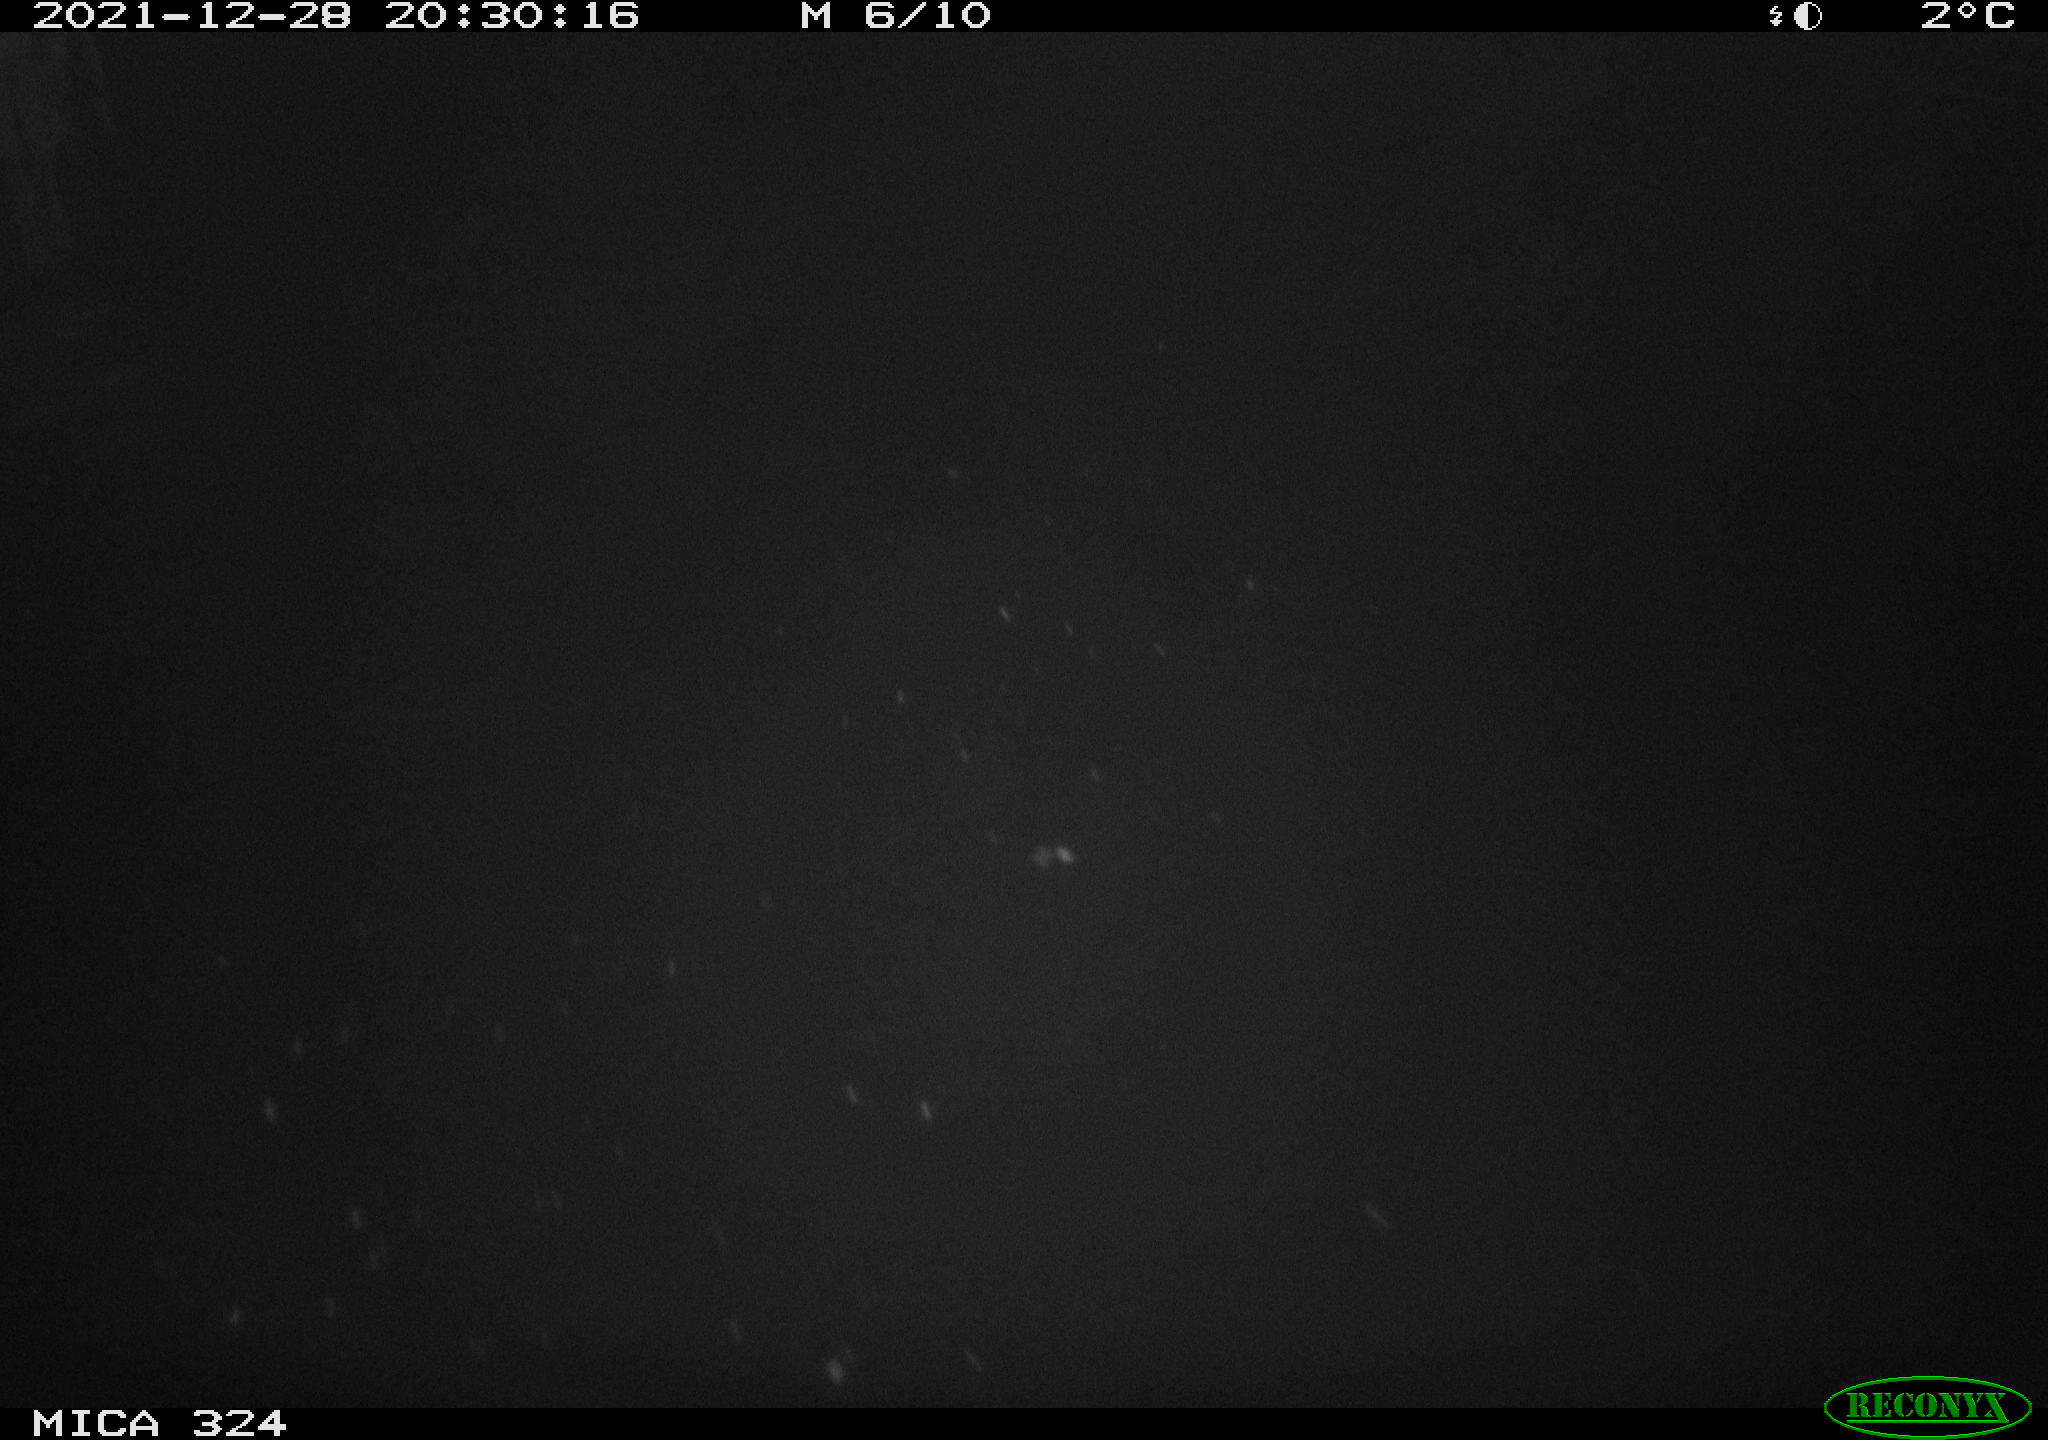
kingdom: Animalia
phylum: Chordata
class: Mammalia
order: Rodentia
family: Cricetidae
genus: Ondatra
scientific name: Ondatra zibethicus
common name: Muskrat
